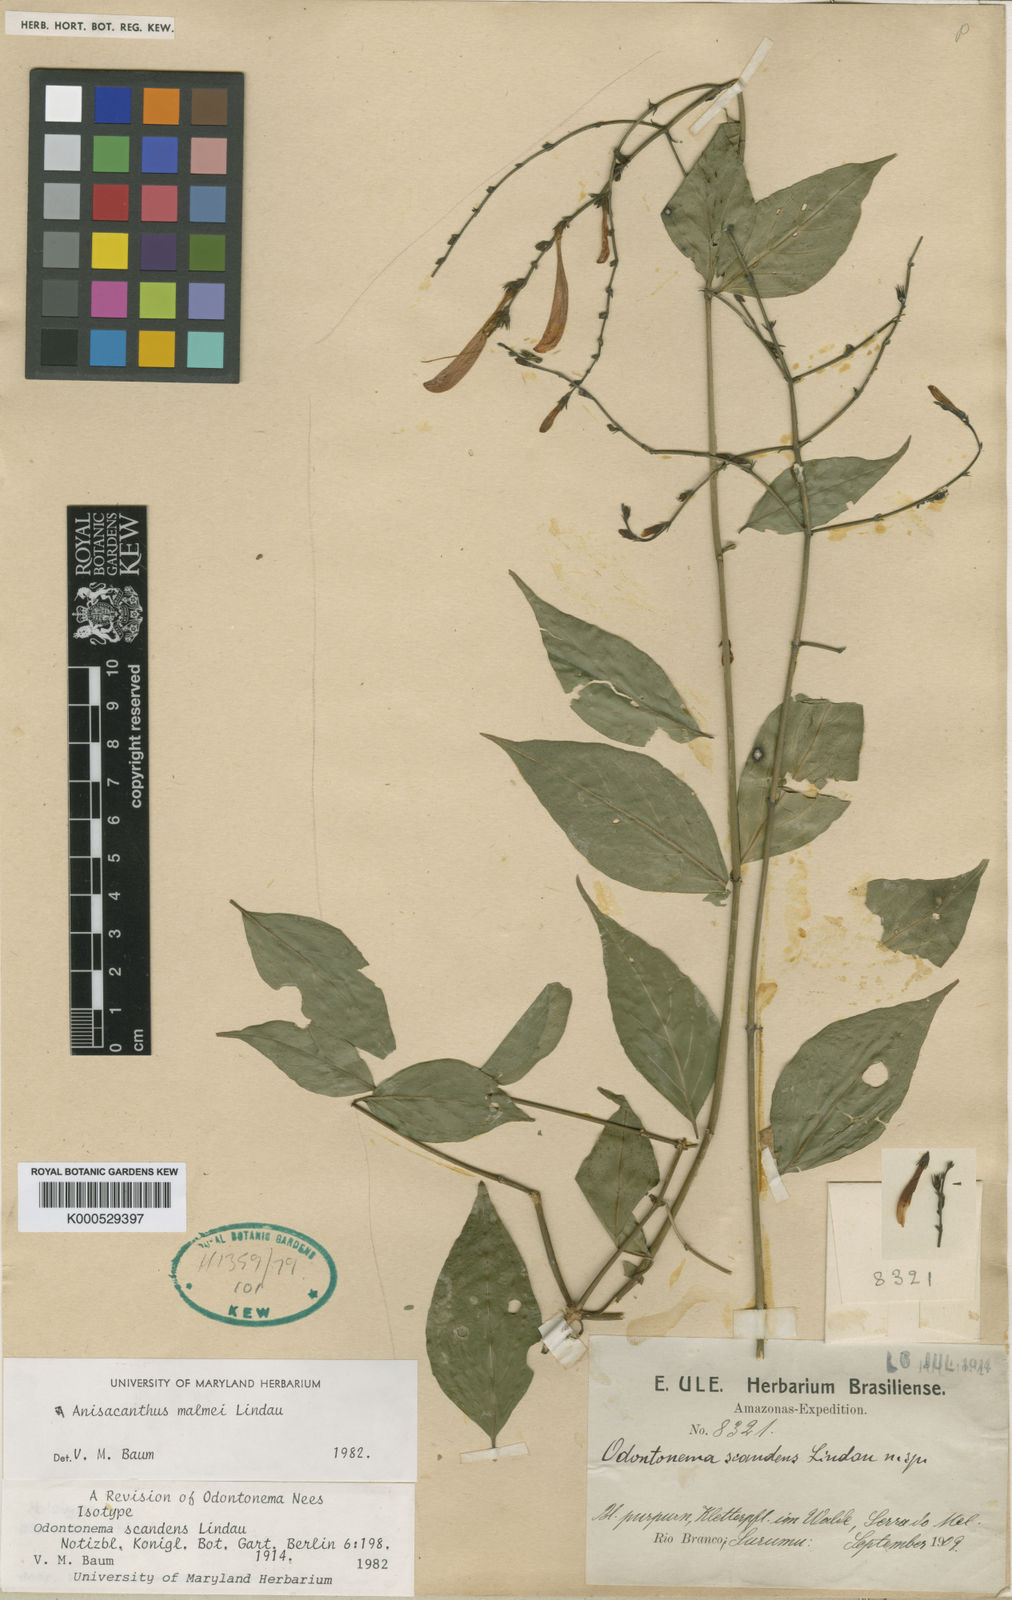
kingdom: Plantae
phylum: Tracheophyta
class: Magnoliopsida
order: Lamiales
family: Acanthaceae
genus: Thyrsacanthus
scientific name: Thyrsacanthus boliviensis
